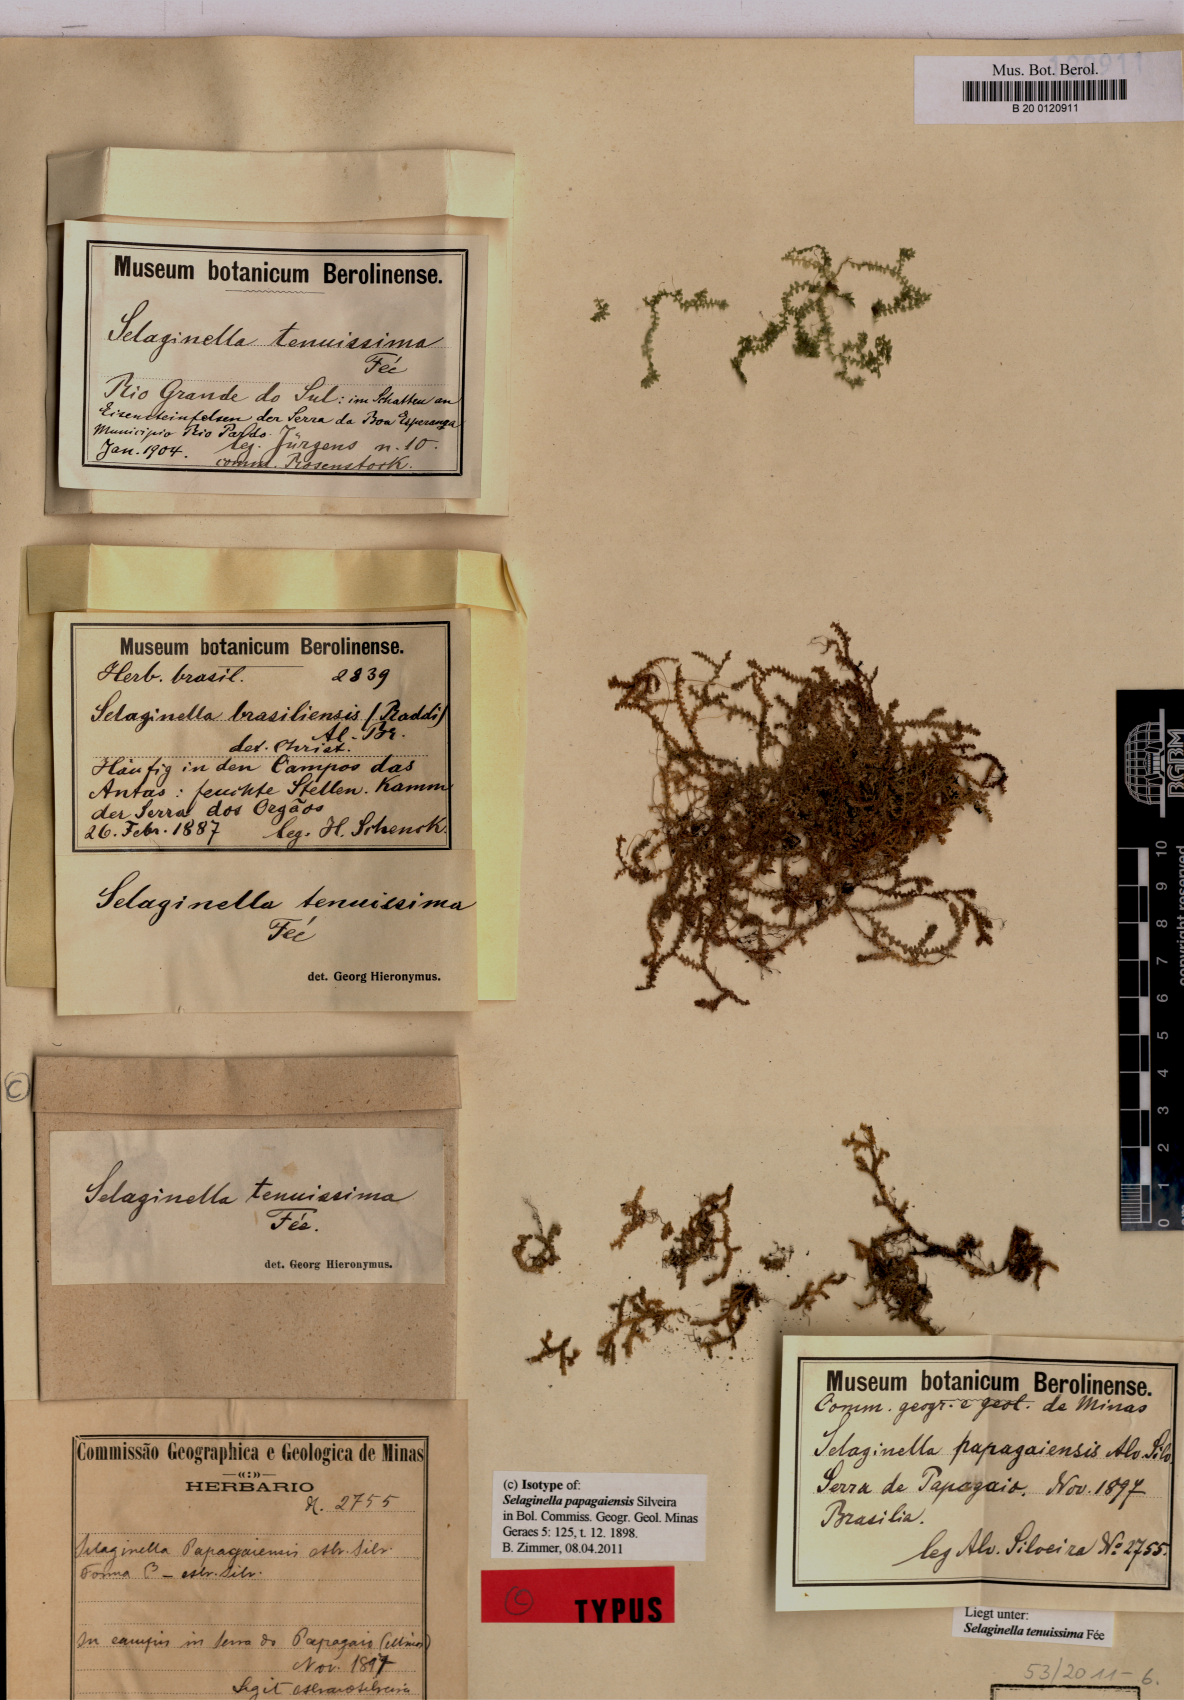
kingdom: Plantae
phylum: Tracheophyta
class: Lycopodiopsida
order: Selaginellales
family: Selaginellaceae
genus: Selaginella
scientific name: Selaginella tenuissima
